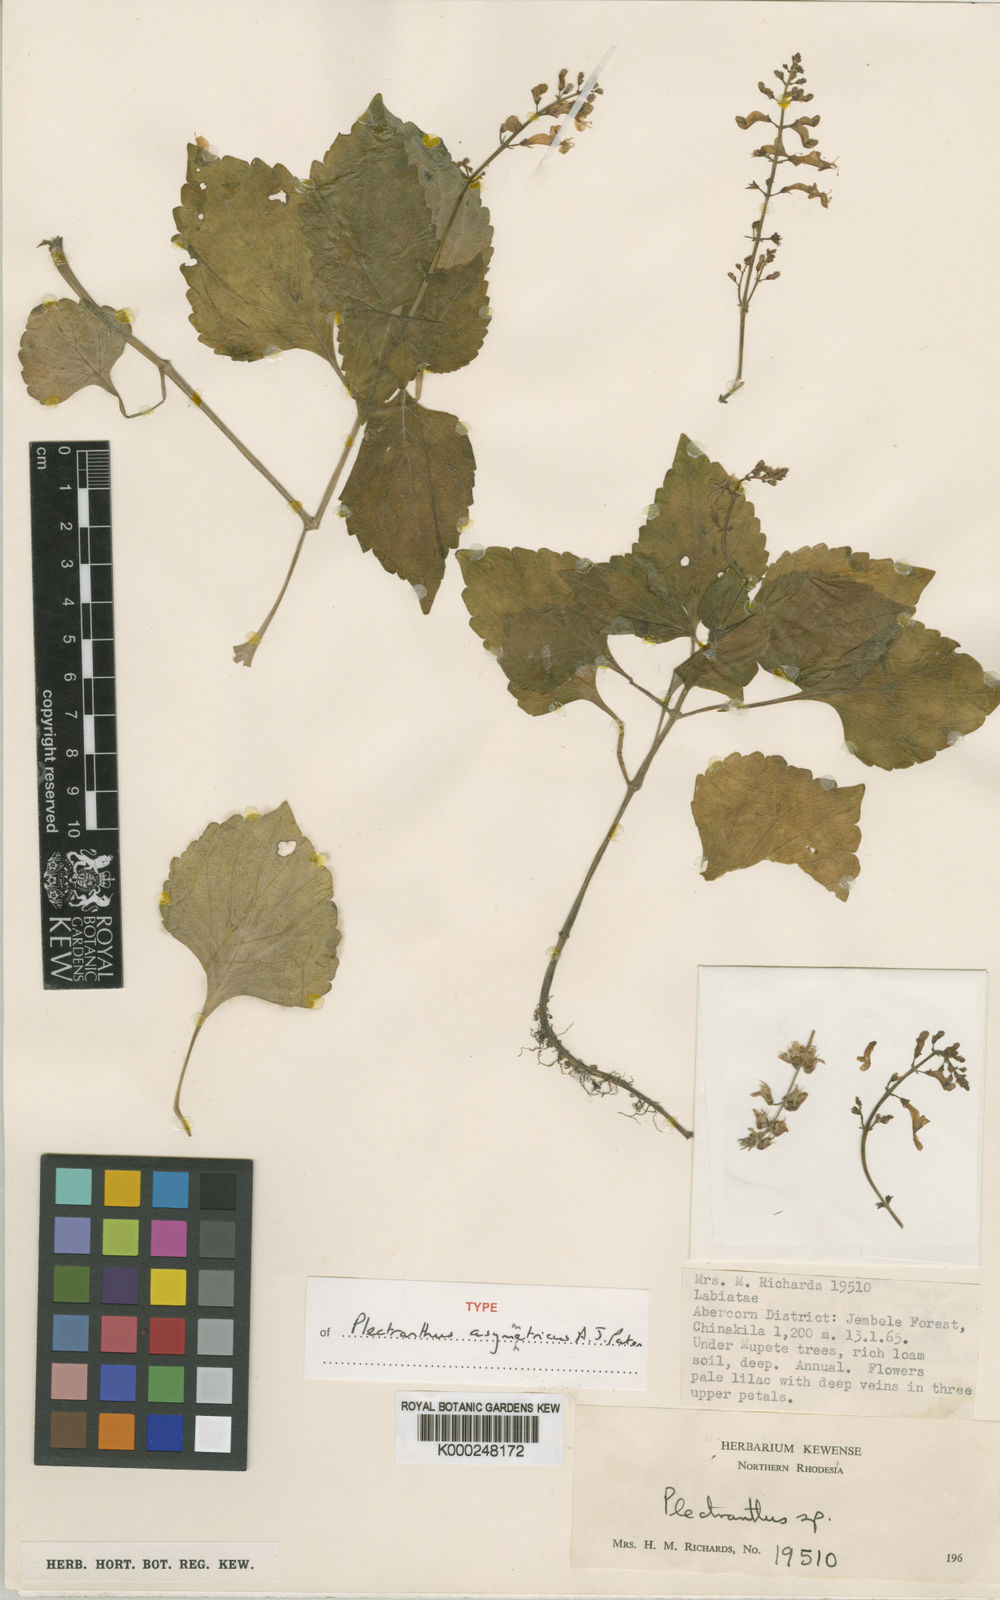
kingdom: Plantae
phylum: Tracheophyta
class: Magnoliopsida
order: Lamiales
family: Lamiaceae
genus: Plectranthus
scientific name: Plectranthus asymmetricus
